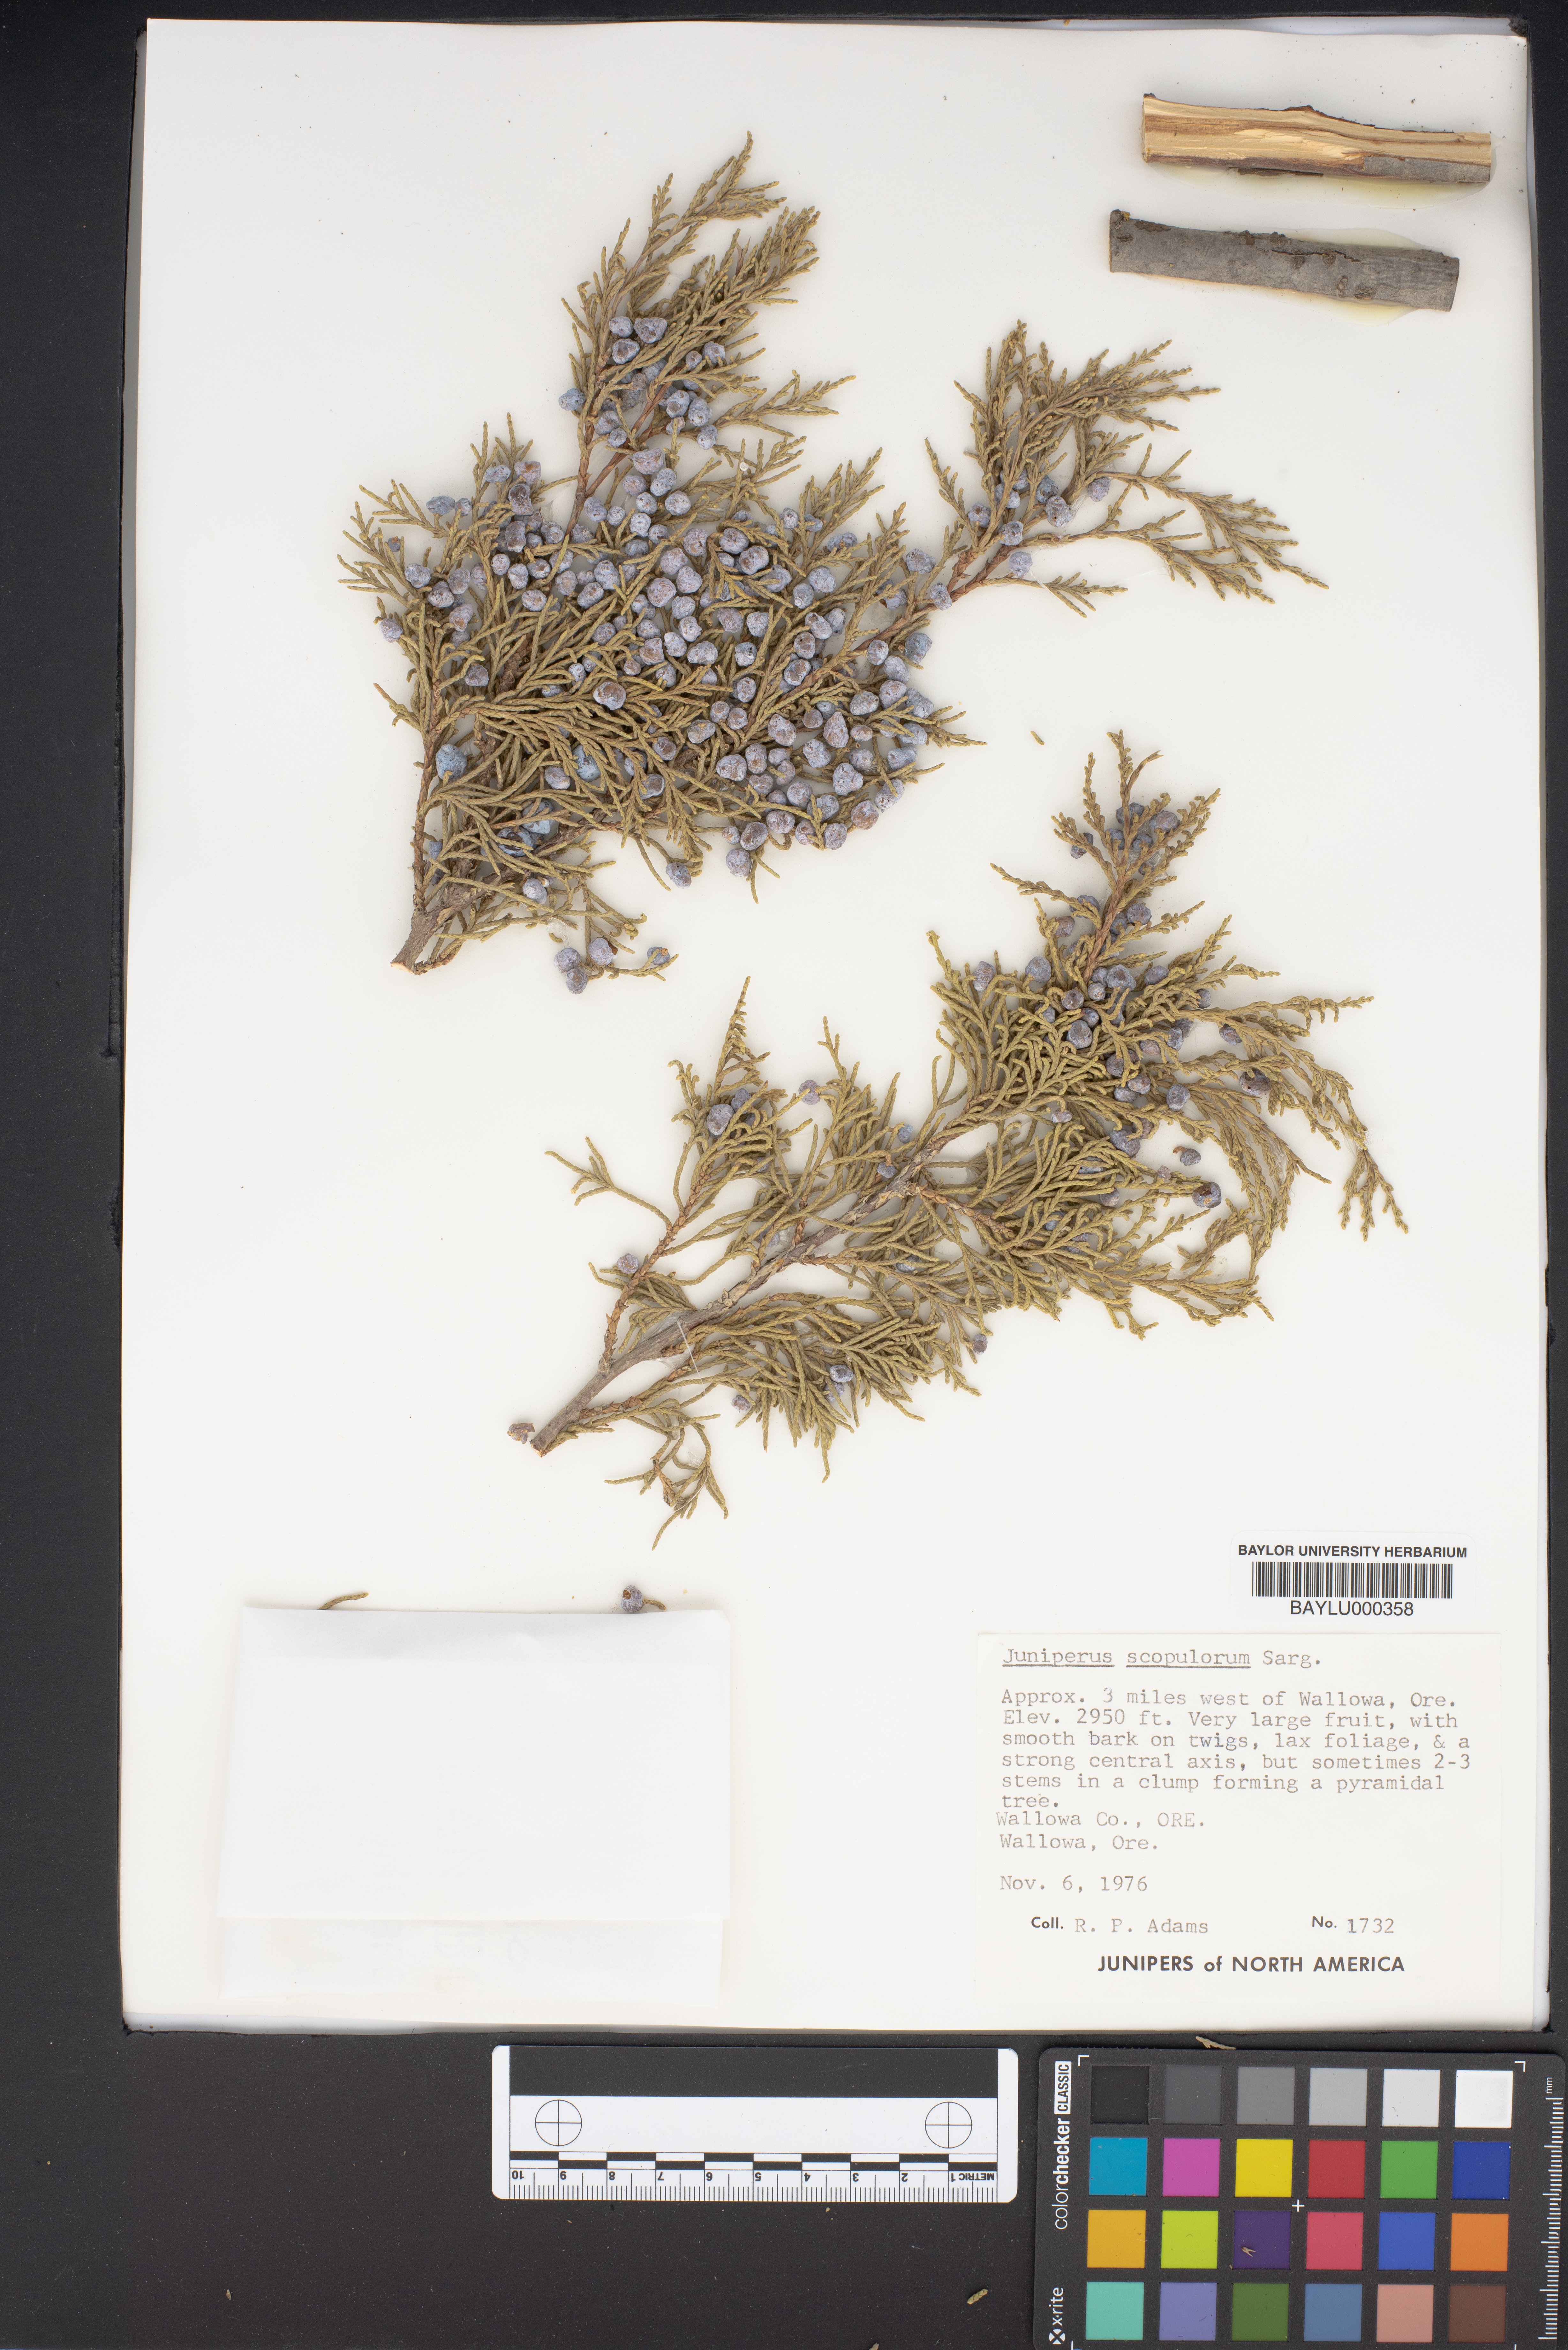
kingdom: Plantae
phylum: Tracheophyta
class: Pinopsida
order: Pinales
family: Cupressaceae
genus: Juniperus
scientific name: Juniperus scopulorum
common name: Rocky mountain juniper
